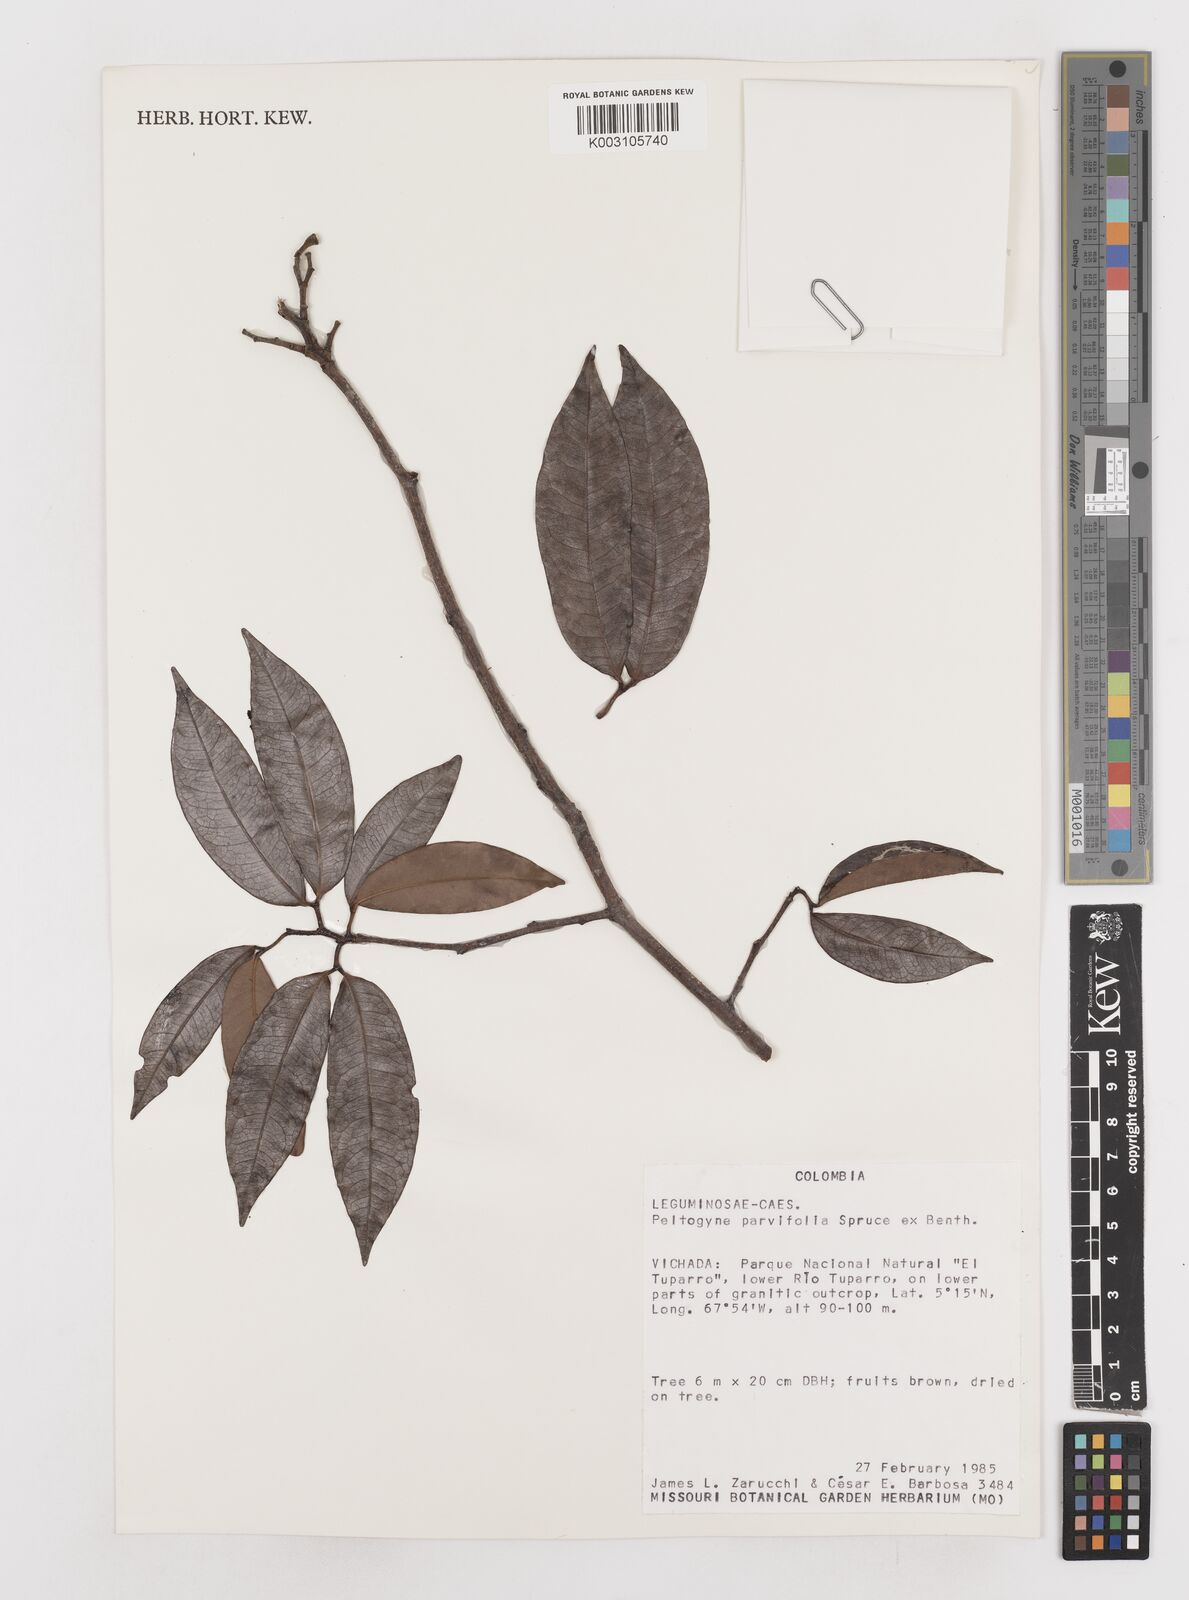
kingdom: Plantae
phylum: Tracheophyta
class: Magnoliopsida
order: Fabales
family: Fabaceae
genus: Peltogyne
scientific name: Peltogyne parvifolia
